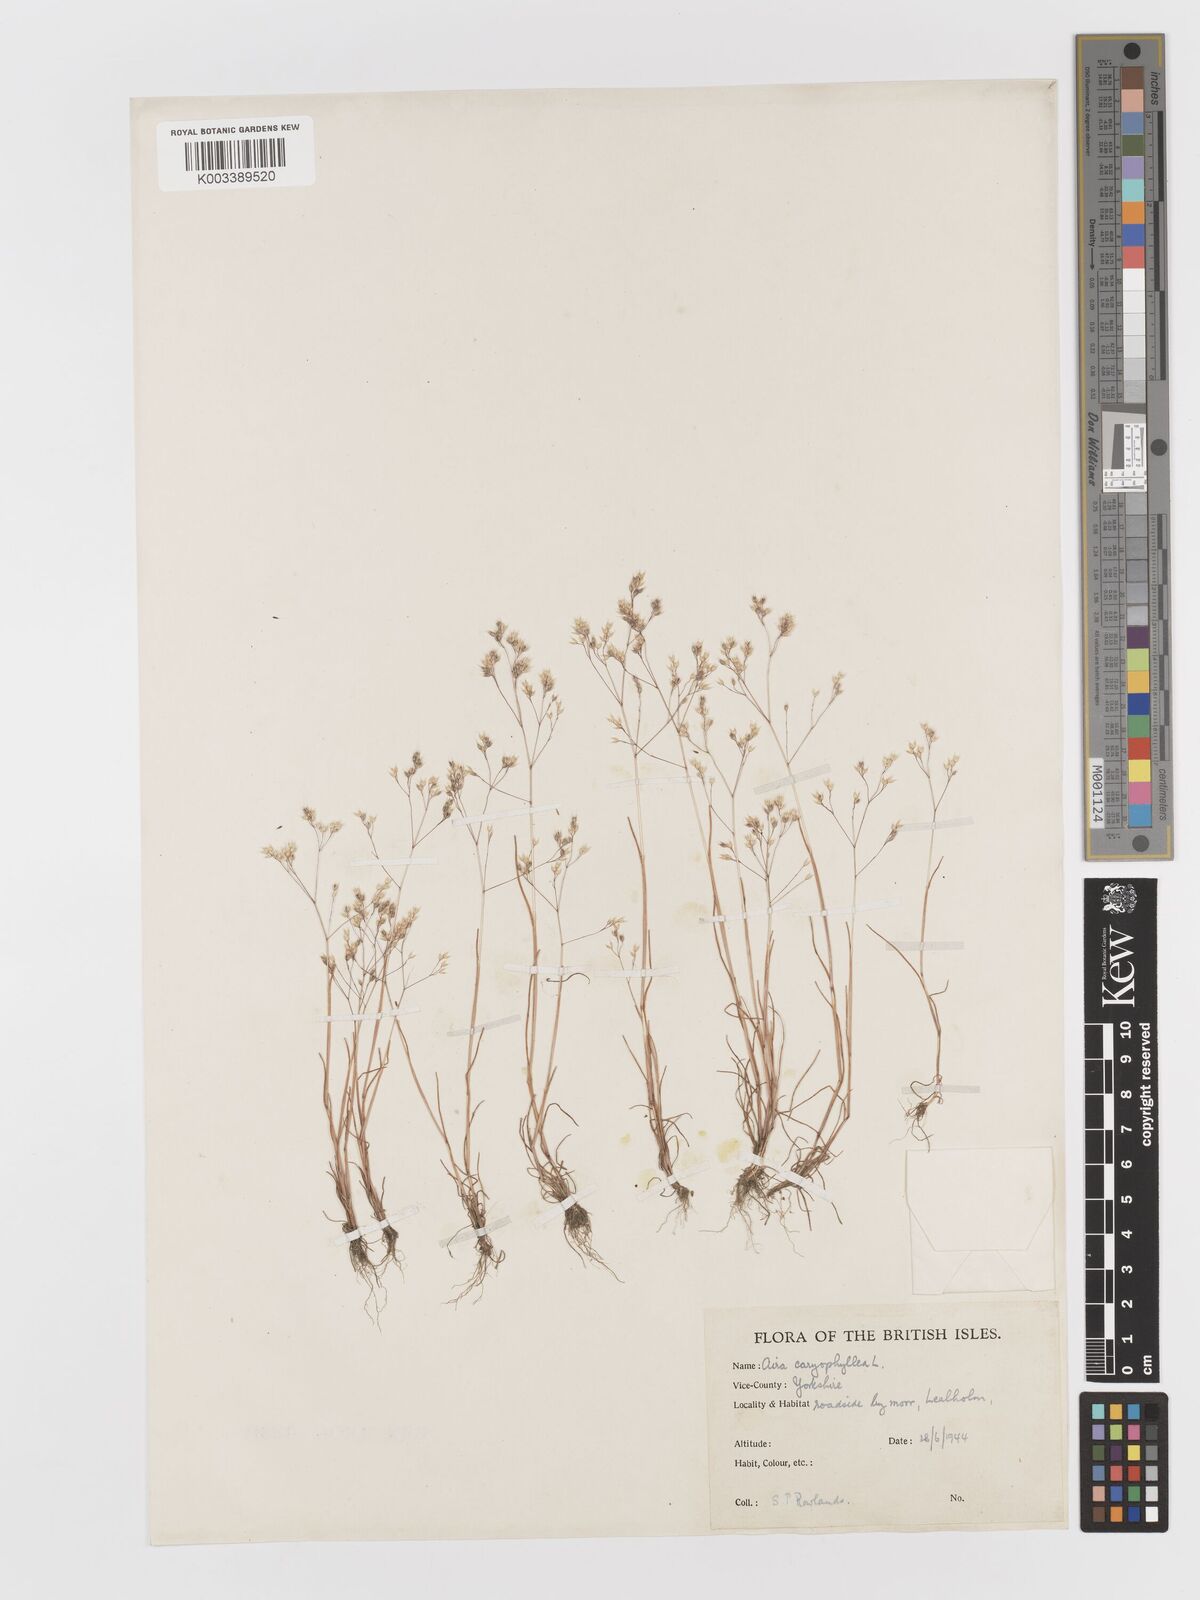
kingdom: Plantae
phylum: Tracheophyta
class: Liliopsida
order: Poales
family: Poaceae
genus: Aira
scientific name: Aira caryophyllea
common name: Silver hairgrass
